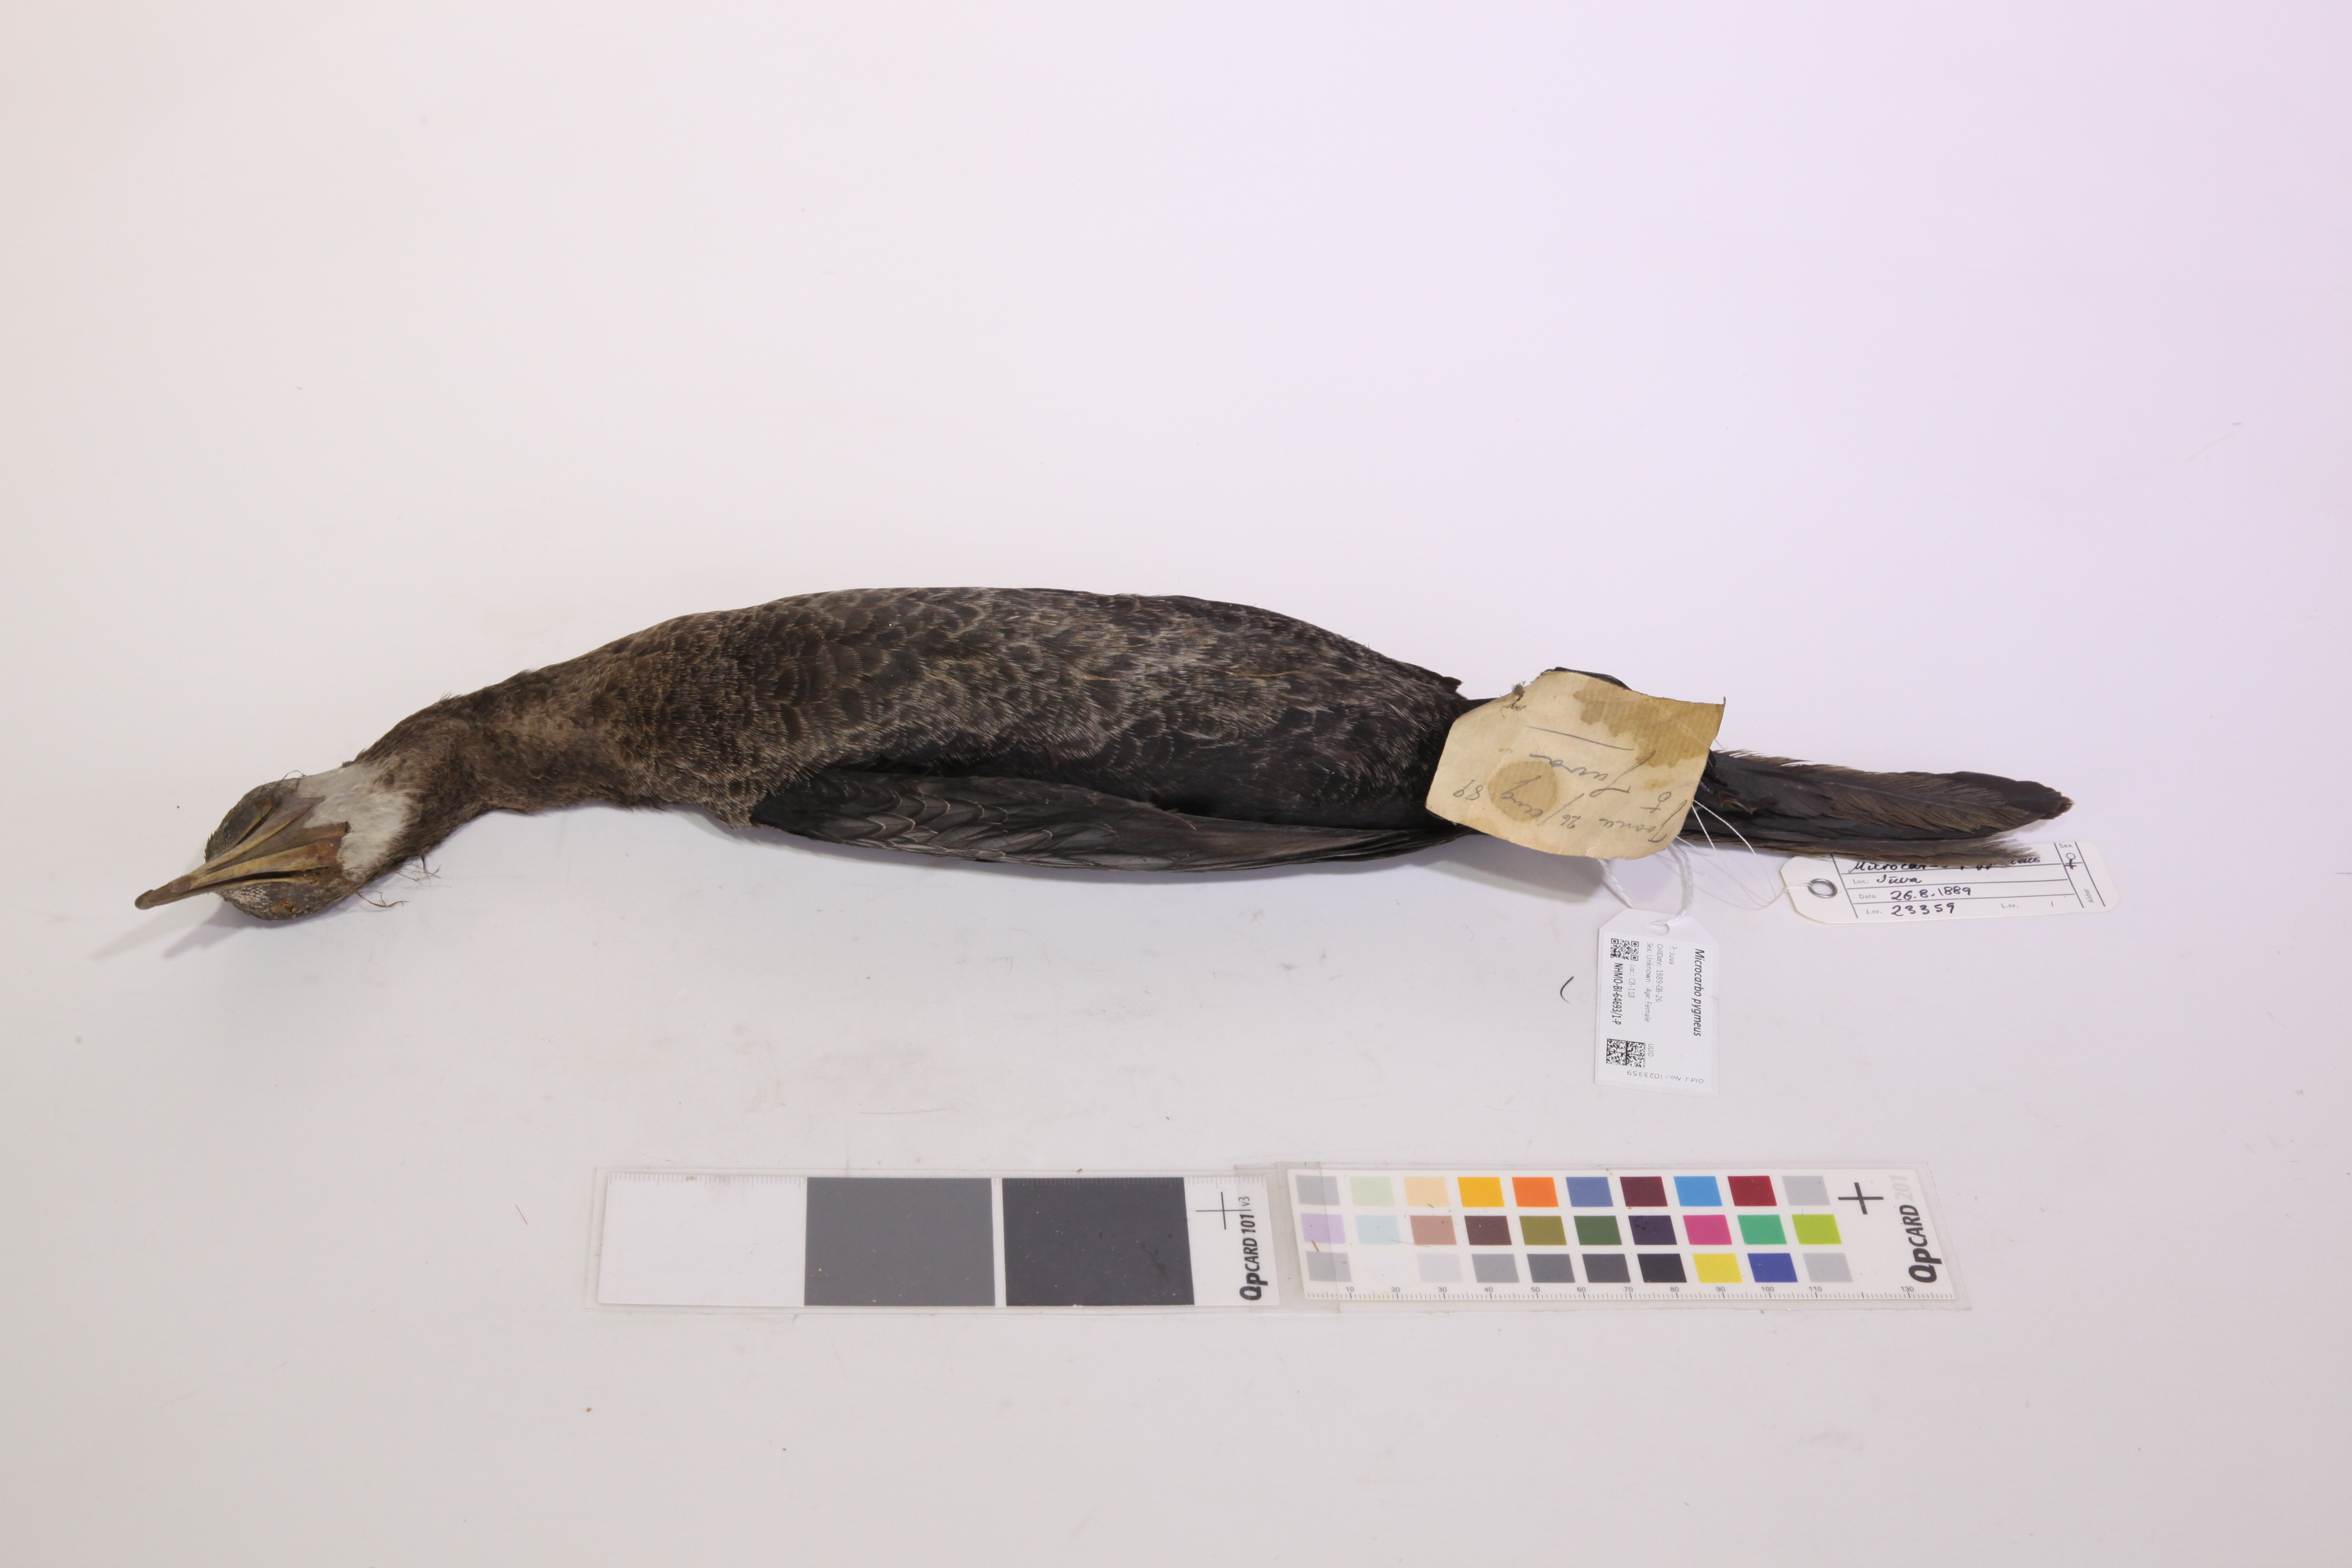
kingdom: Animalia
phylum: Chordata
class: Aves
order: Suliformes
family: Phalacrocoracidae
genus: Microcarbo
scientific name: Microcarbo pygmaeus
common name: Pygmy cormorant
